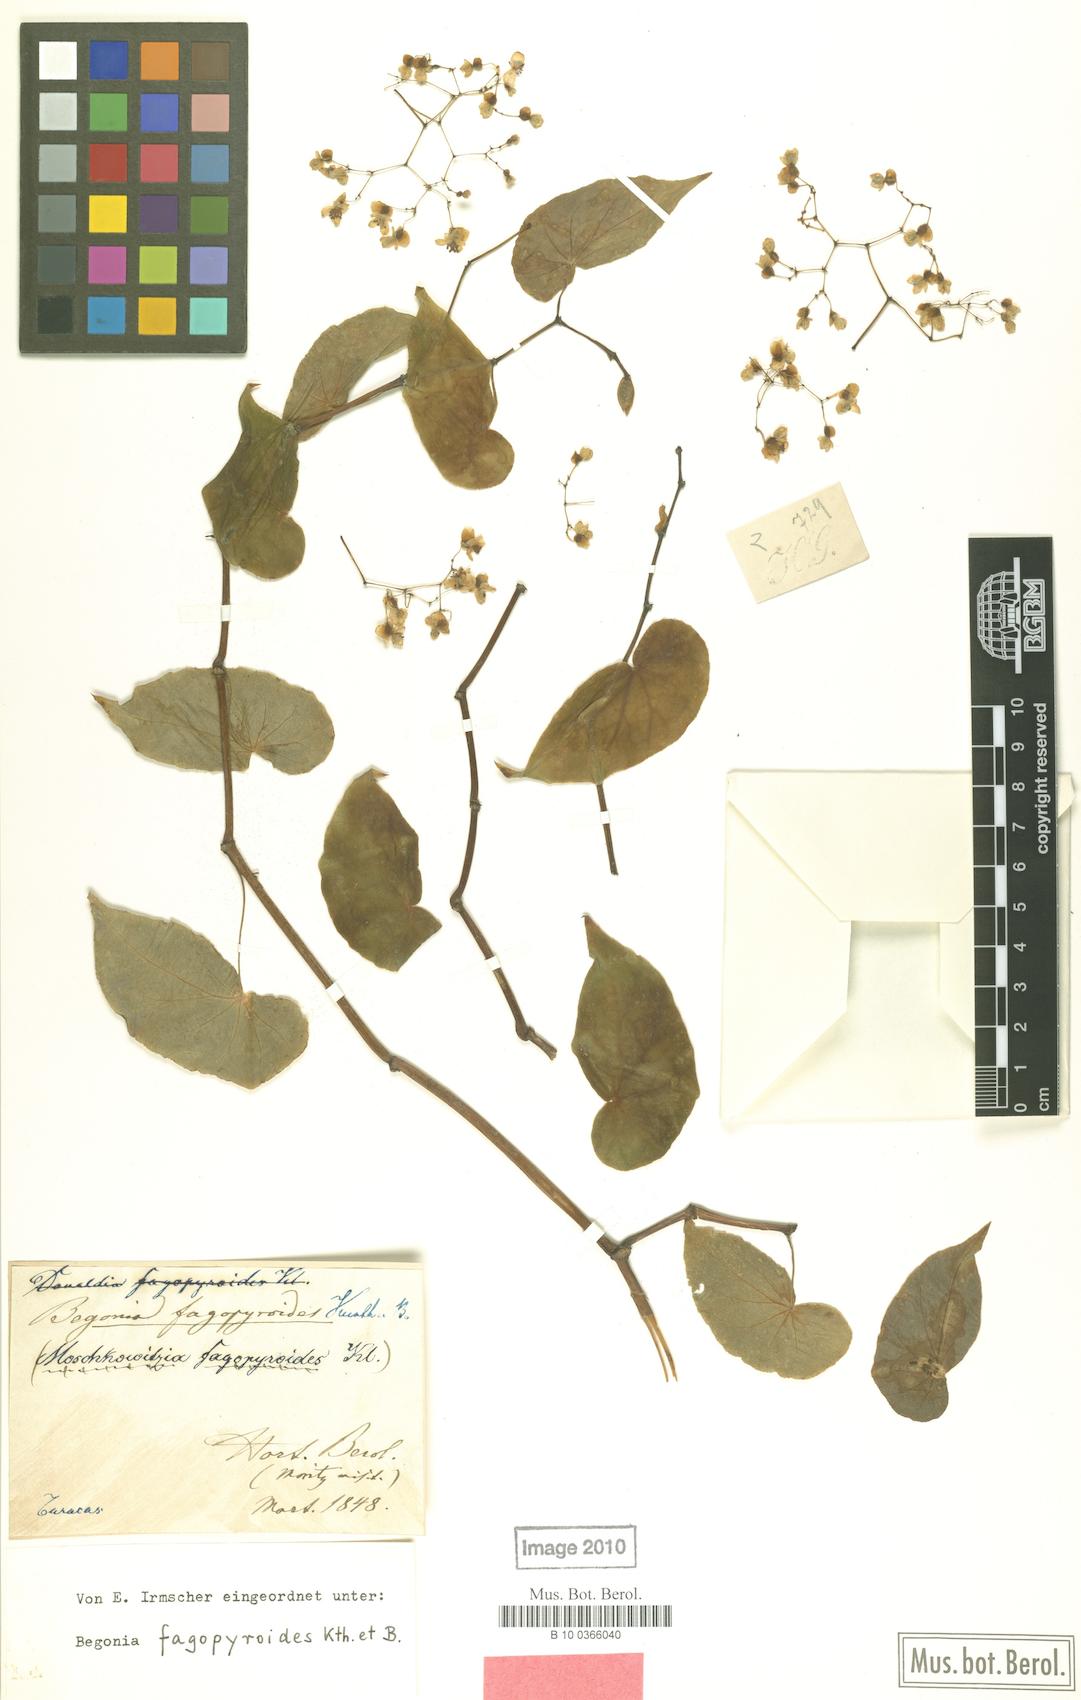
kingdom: Plantae
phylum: Tracheophyta
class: Magnoliopsida
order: Cucurbitales
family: Begoniaceae
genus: Begonia
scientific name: Begonia denticulata
